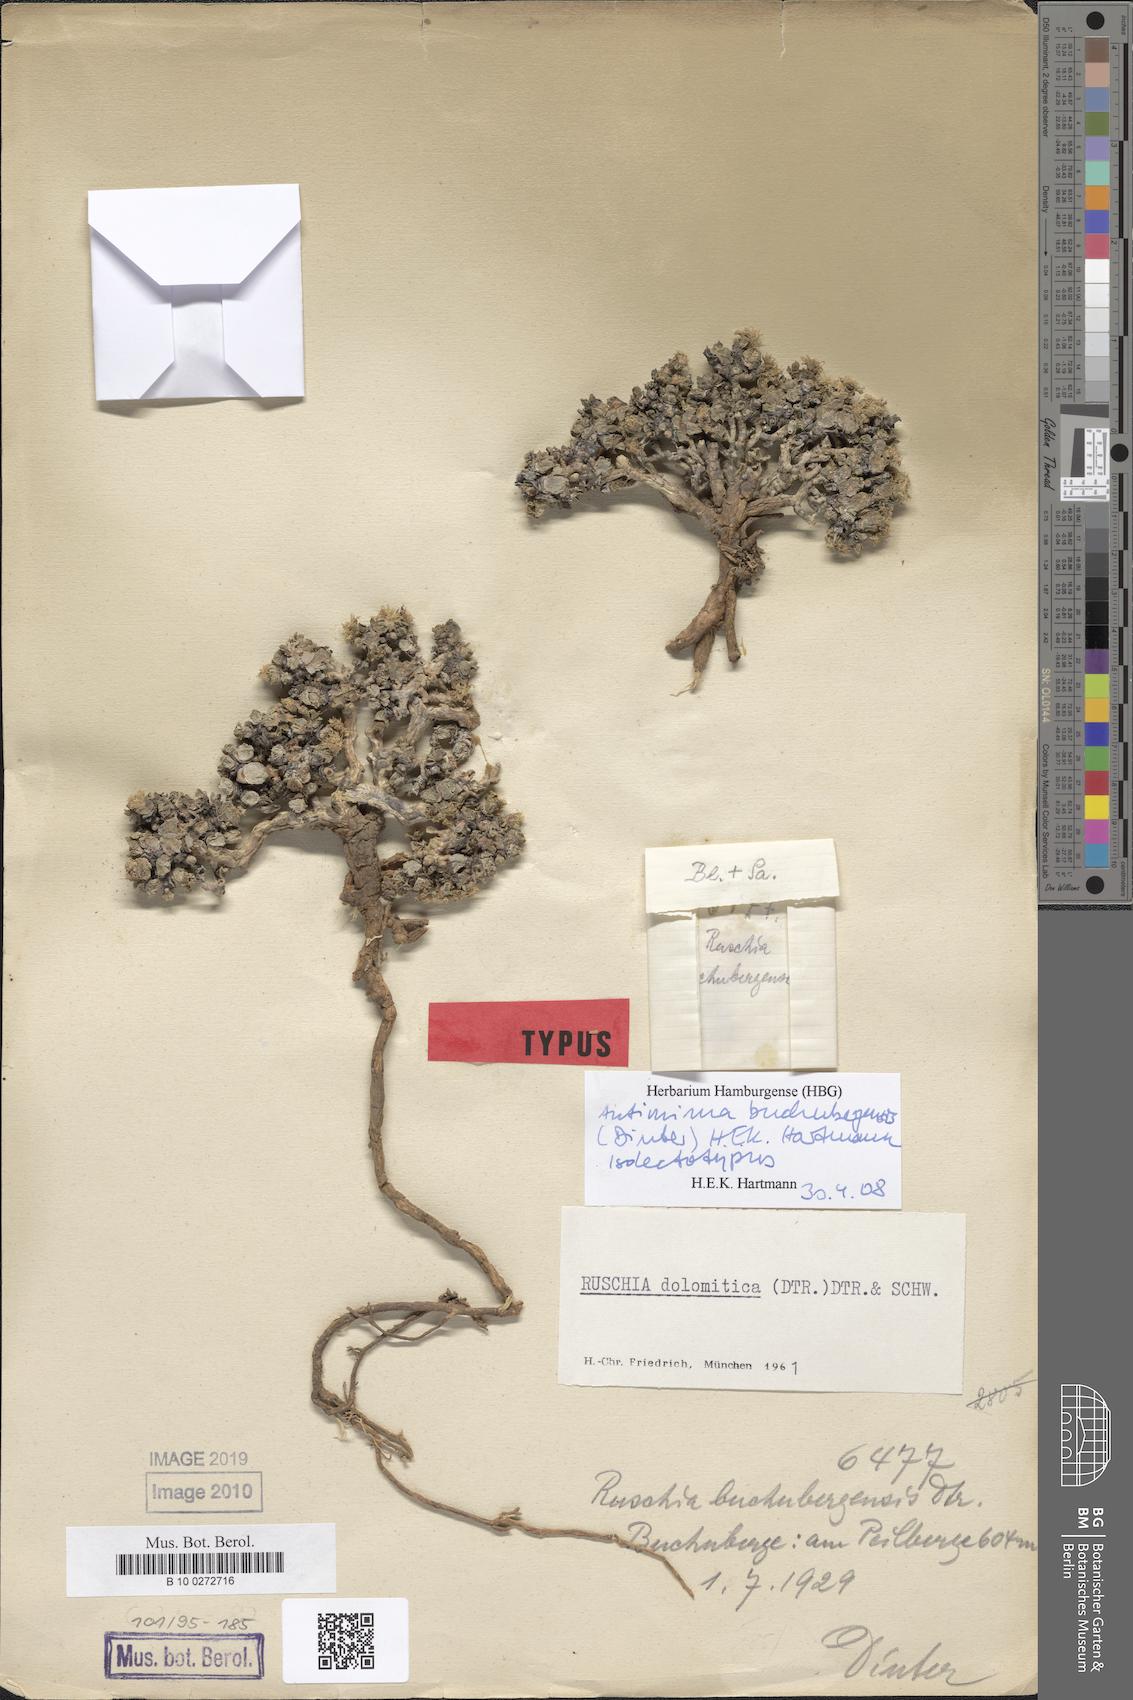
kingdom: Plantae
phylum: Tracheophyta
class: Magnoliopsida
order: Caryophyllales
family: Aizoaceae
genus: Antimima
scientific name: Antimima buchubergensis
